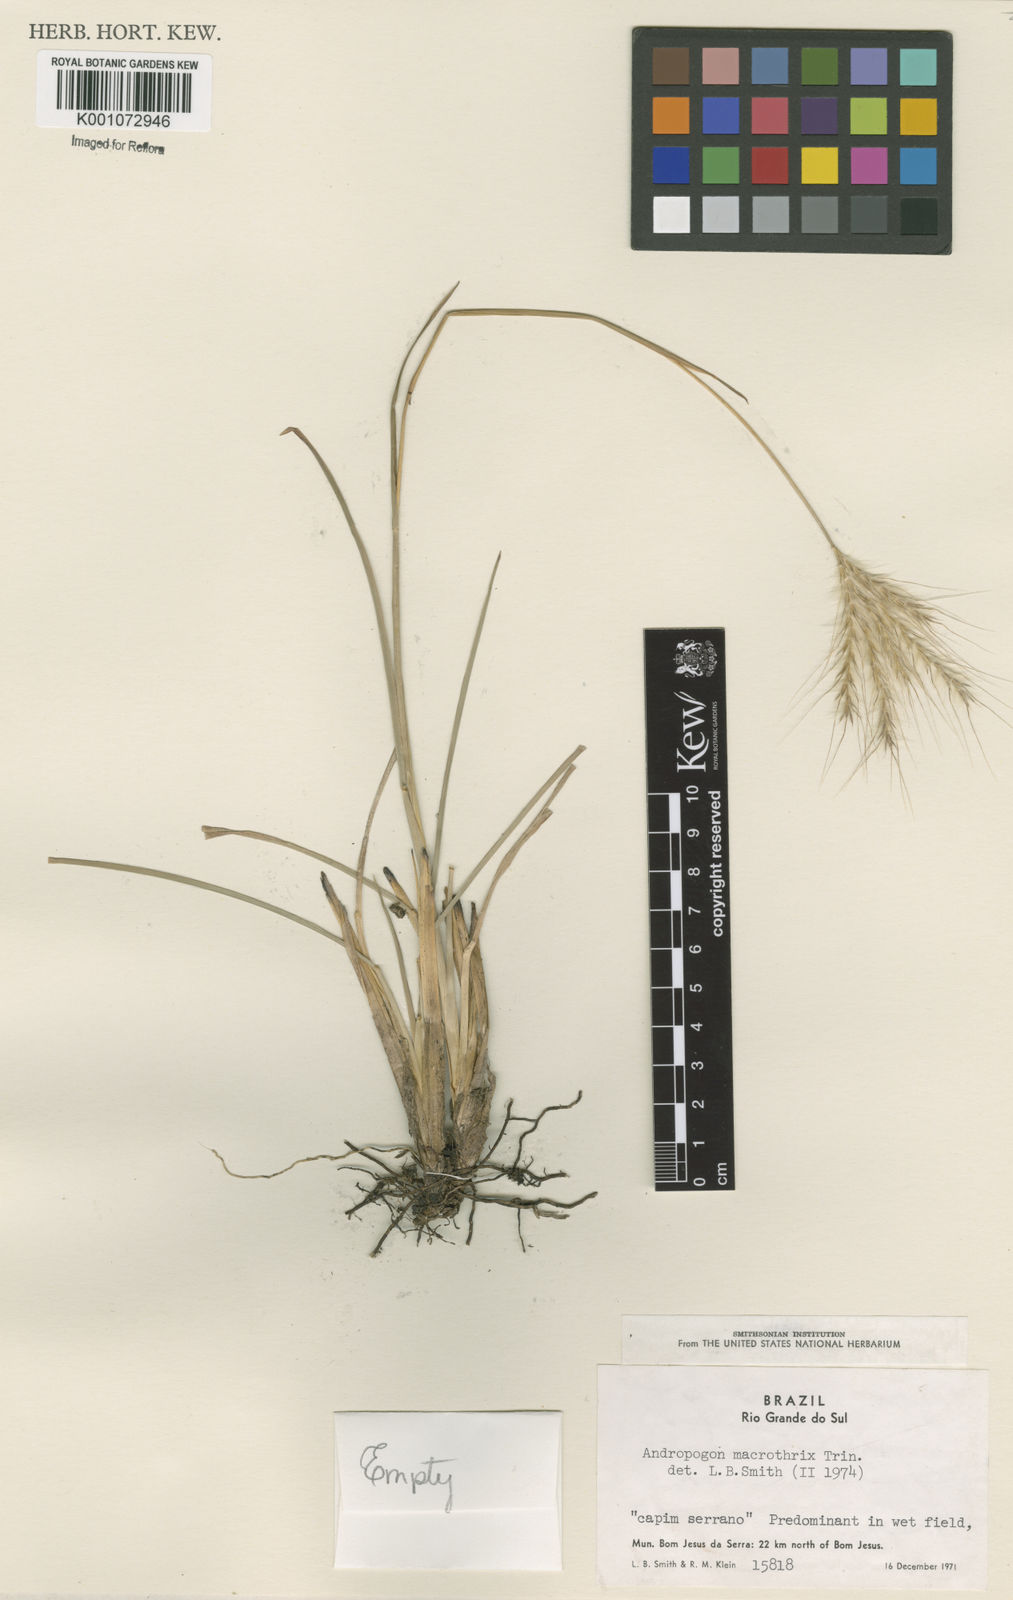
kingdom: Plantae
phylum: Tracheophyta
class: Liliopsida
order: Poales
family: Poaceae
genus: Andropogon
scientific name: Andropogon macrothrix
